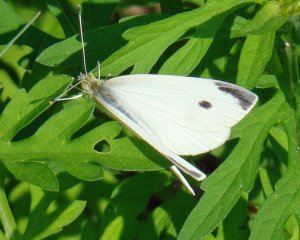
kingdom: Animalia
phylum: Arthropoda
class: Insecta
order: Lepidoptera
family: Pieridae
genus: Pieris
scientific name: Pieris rapae
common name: Cabbage White
